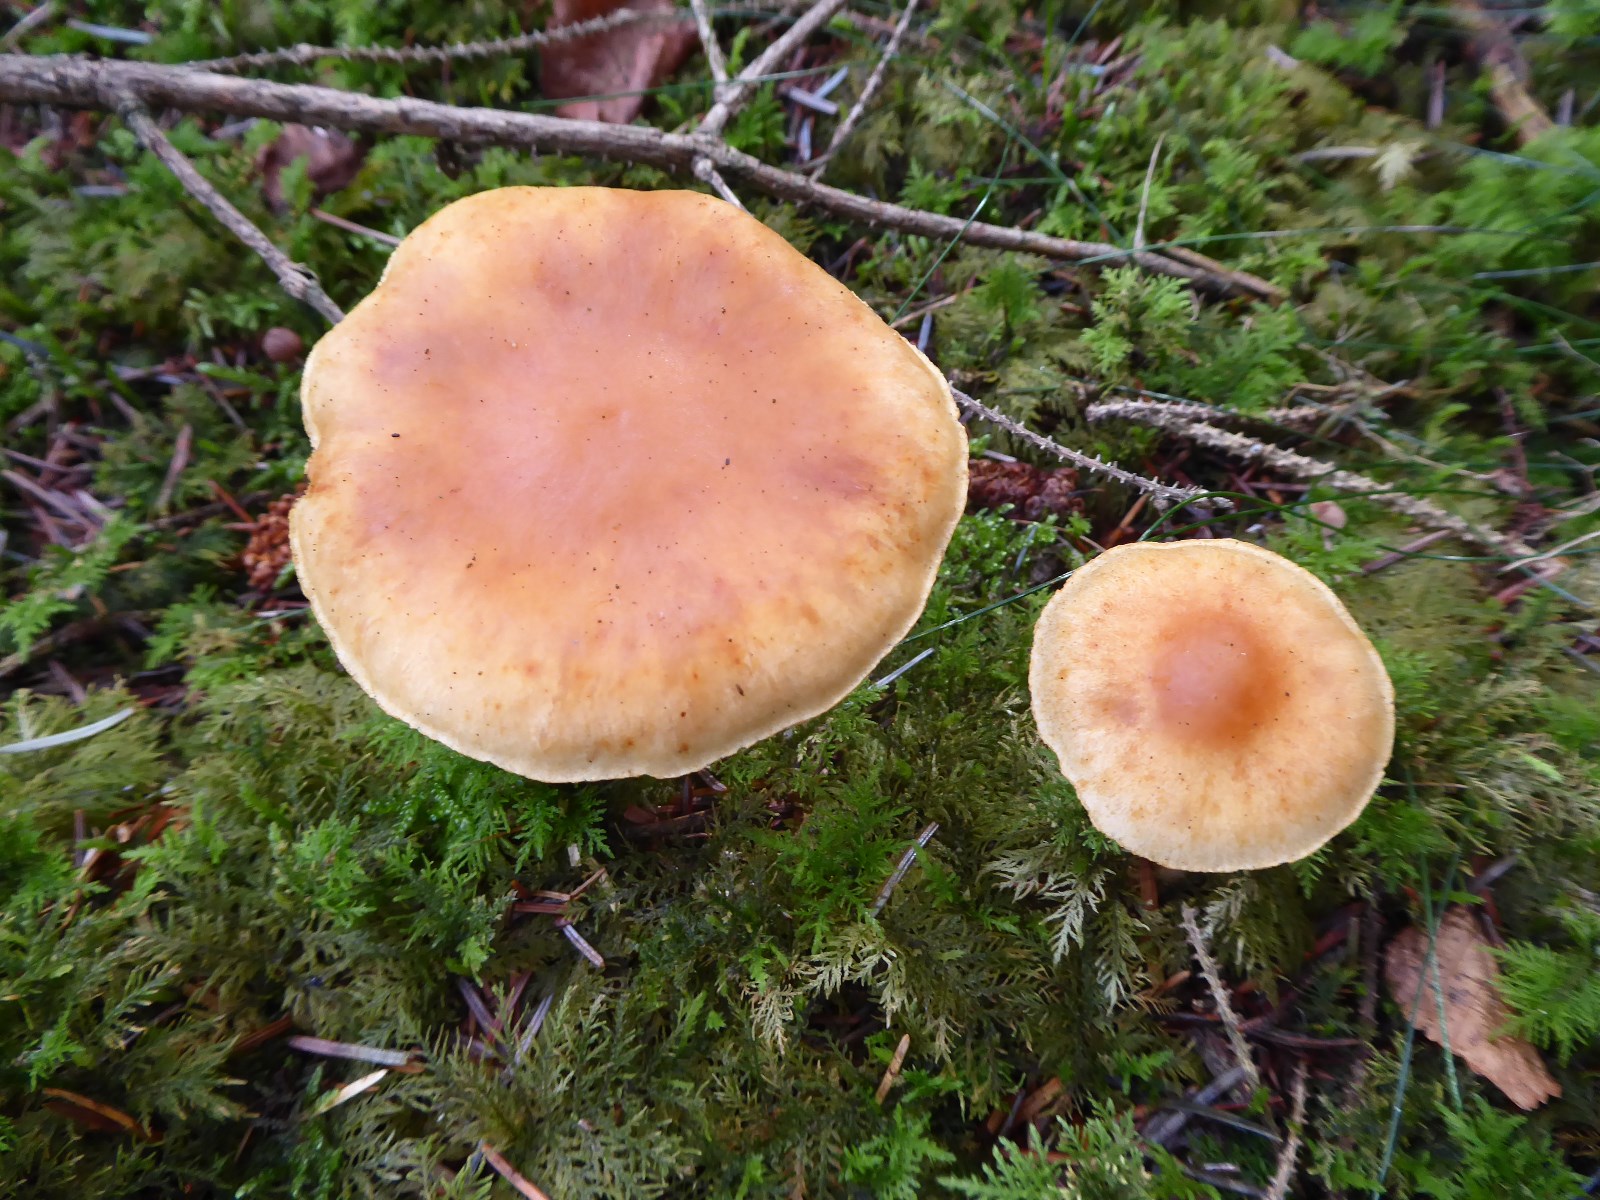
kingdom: Fungi
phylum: Basidiomycota
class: Agaricomycetes
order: Agaricales
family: Hymenogastraceae
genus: Gymnopilus
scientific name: Gymnopilus penetrans
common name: plettet flammehat
